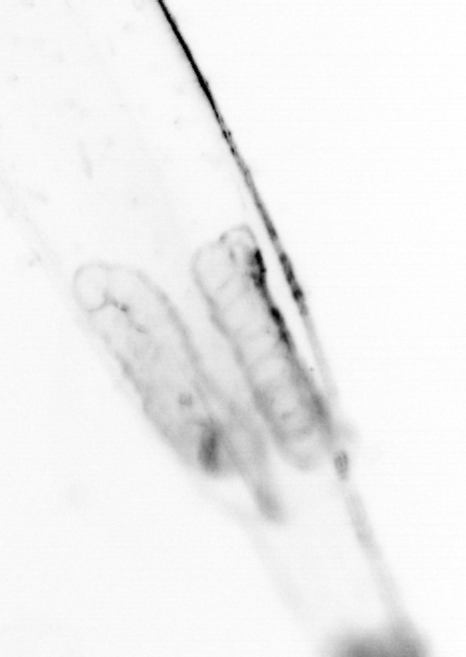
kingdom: Animalia
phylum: Chaetognatha
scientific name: Chaetognatha
